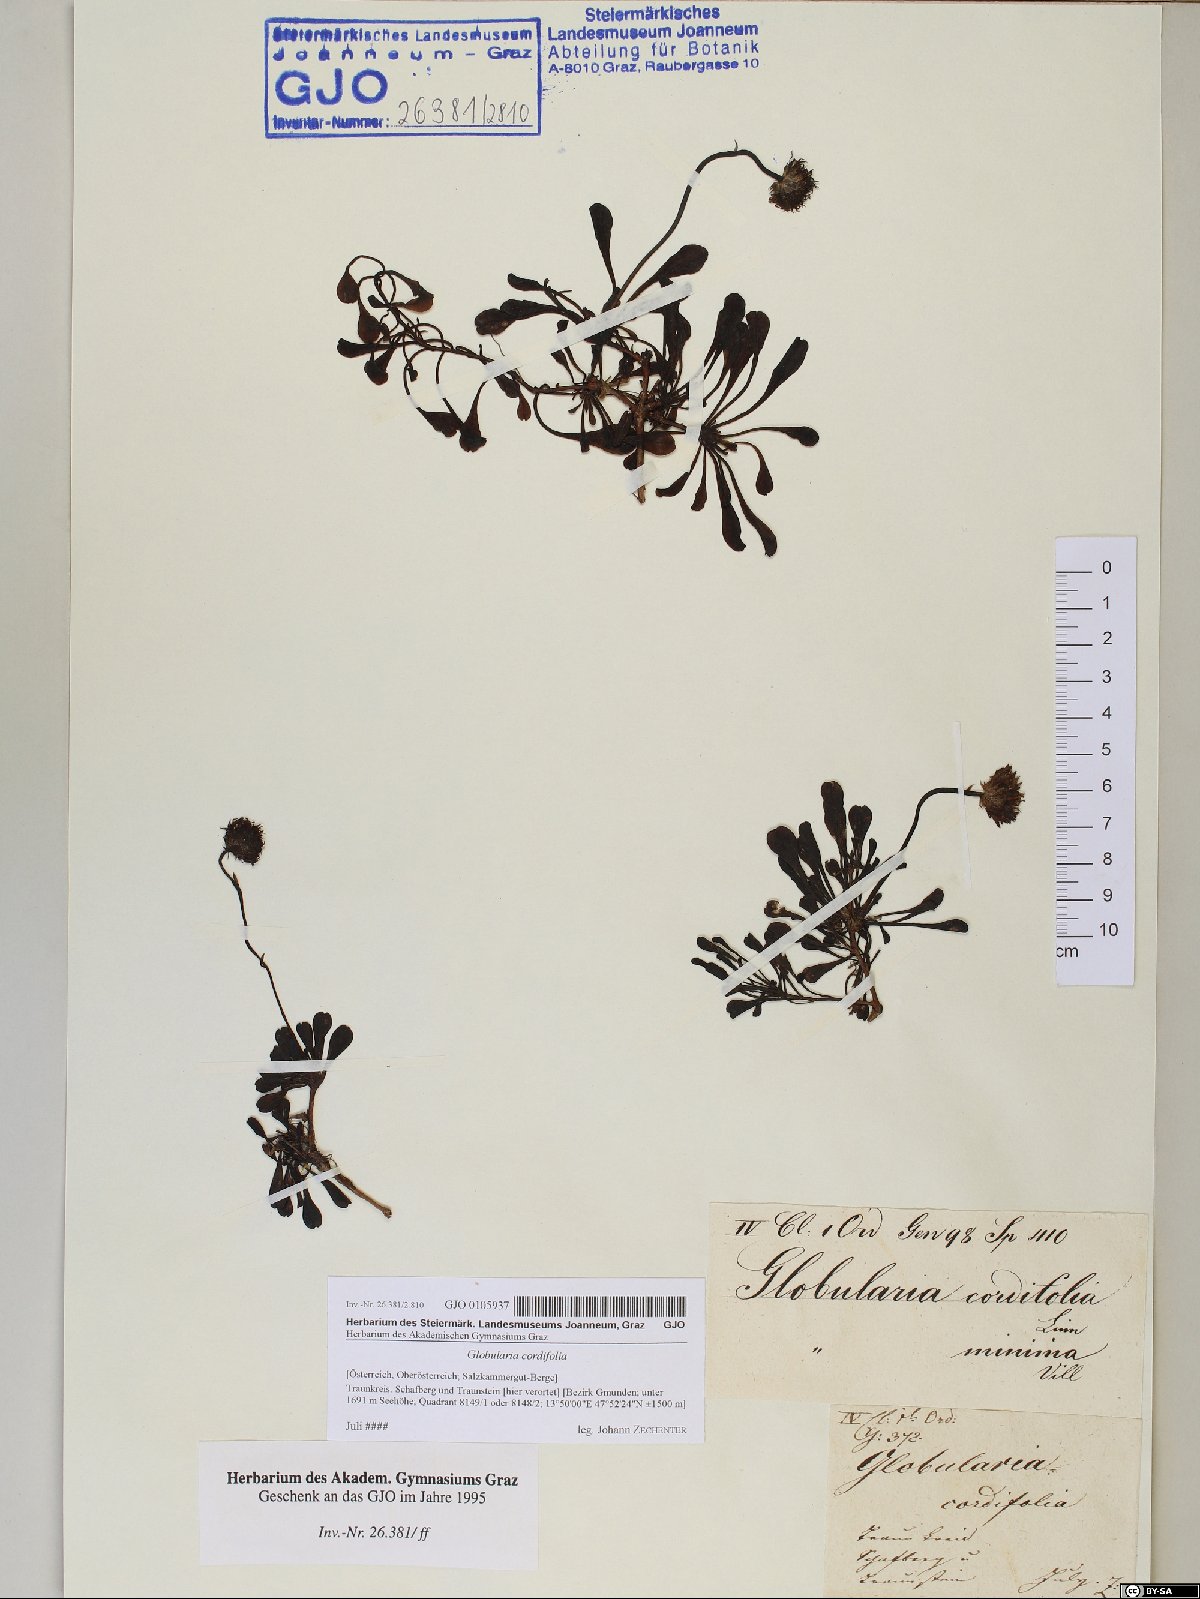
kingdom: Plantae
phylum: Tracheophyta
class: Magnoliopsida
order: Lamiales
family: Plantaginaceae
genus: Globularia
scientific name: Globularia cordifolia
